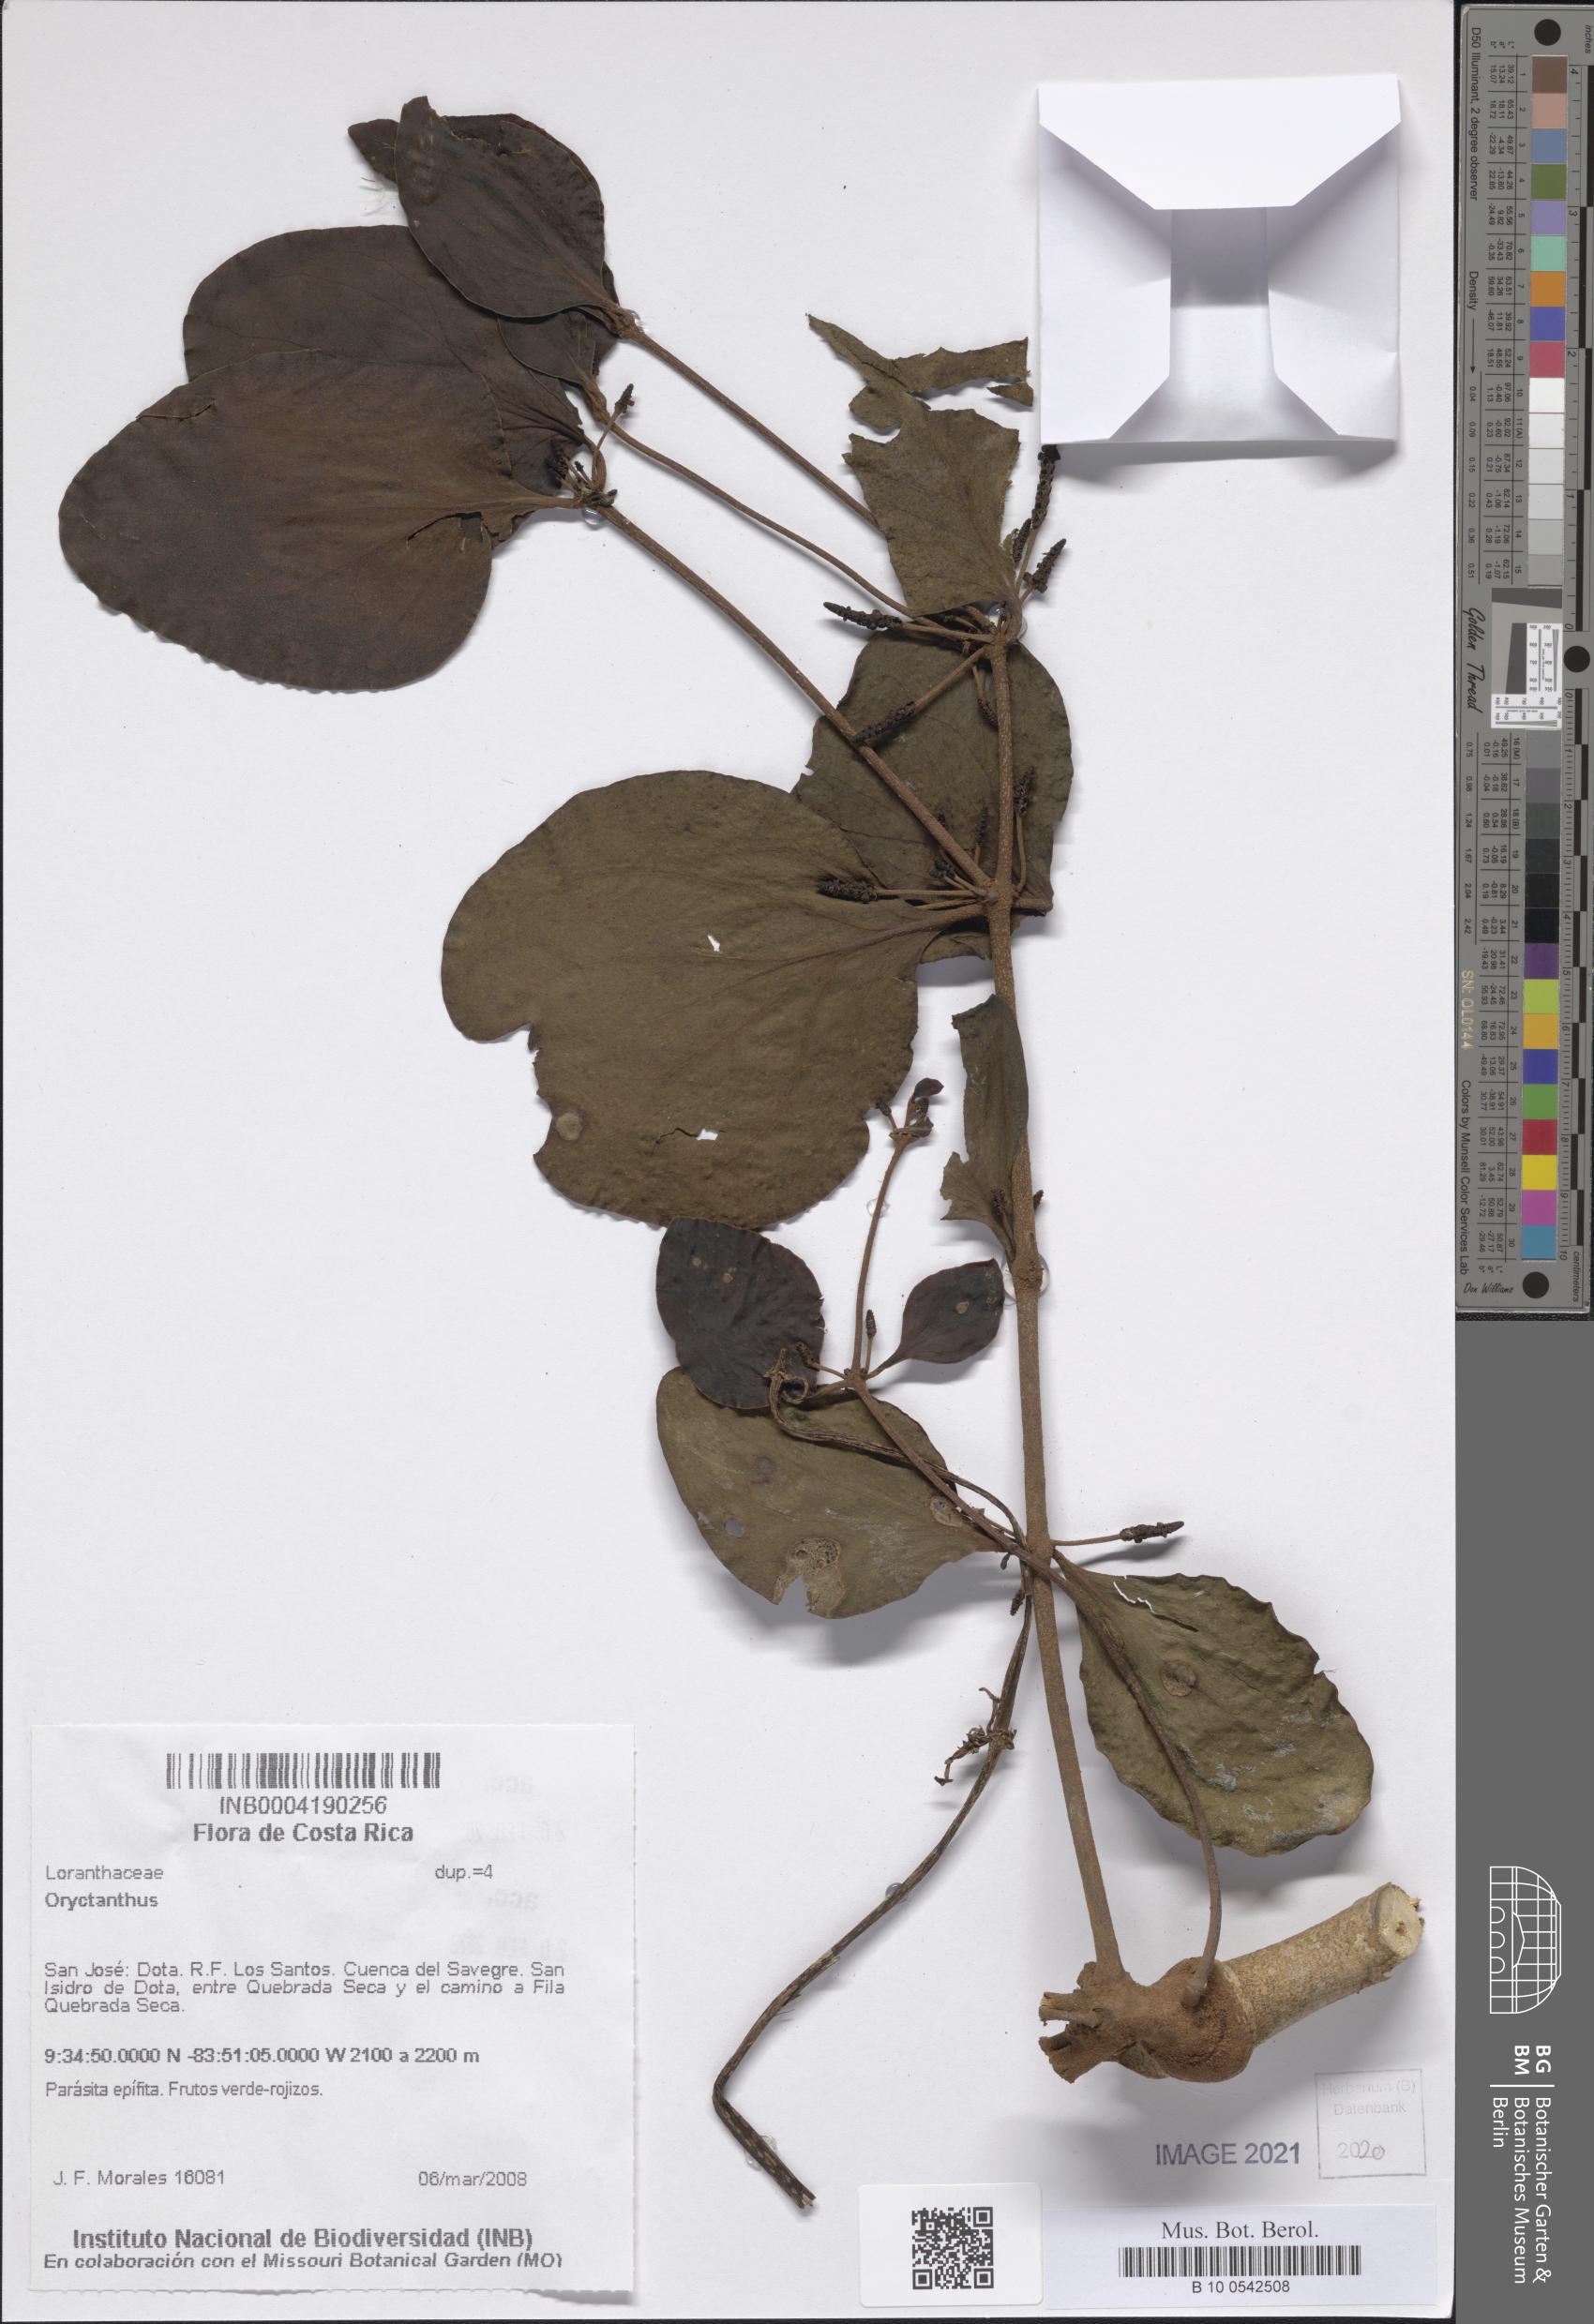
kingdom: Plantae
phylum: Tracheophyta
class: Magnoliopsida
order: Santalales
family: Loranthaceae
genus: Oryctanthus
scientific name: Oryctanthus
